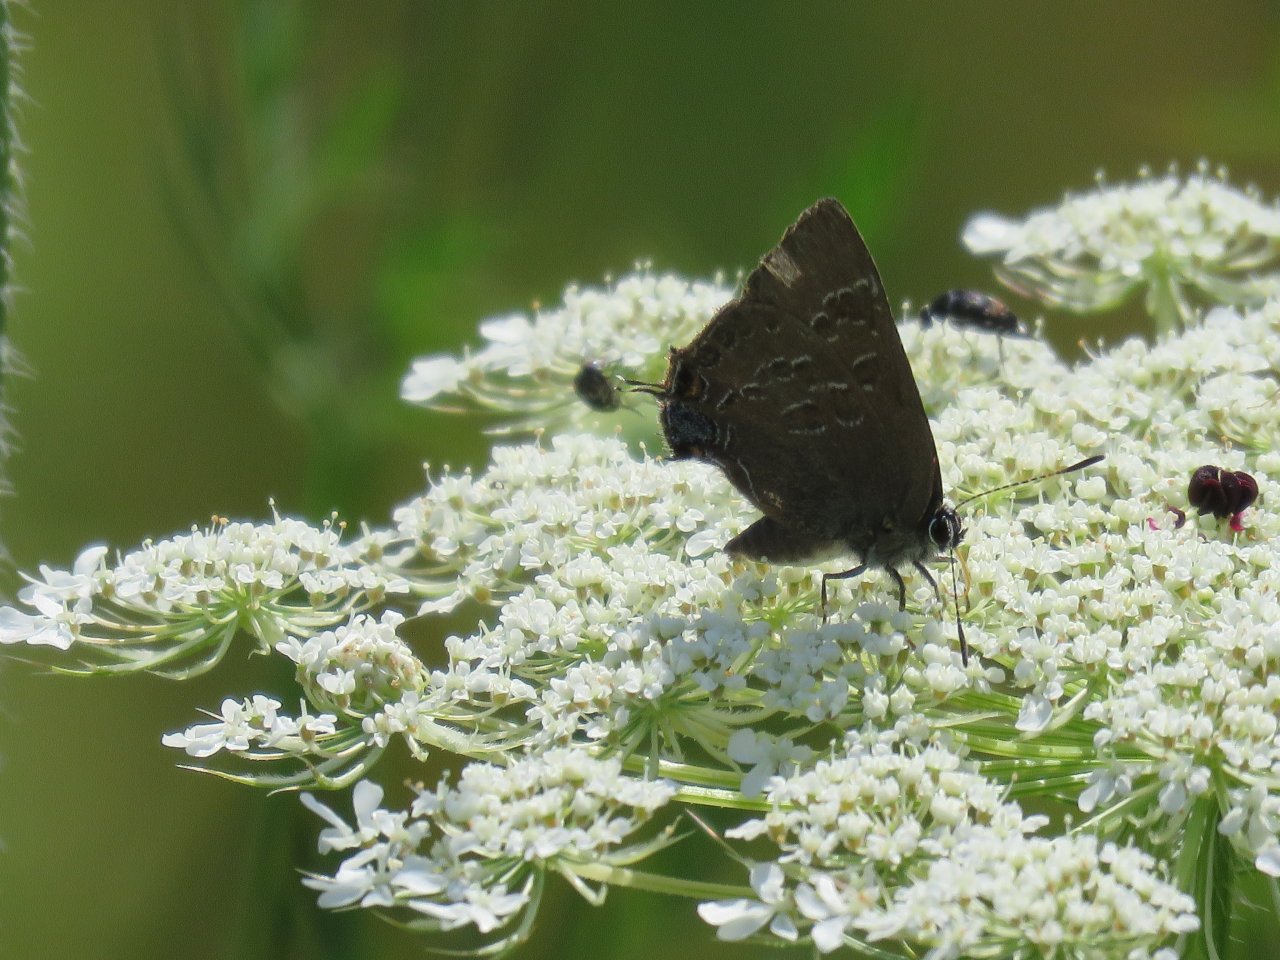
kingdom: Animalia
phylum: Arthropoda
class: Insecta
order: Lepidoptera
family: Lycaenidae
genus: Strymon
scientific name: Strymon caryaevorus
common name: Hickory Hairstreak
